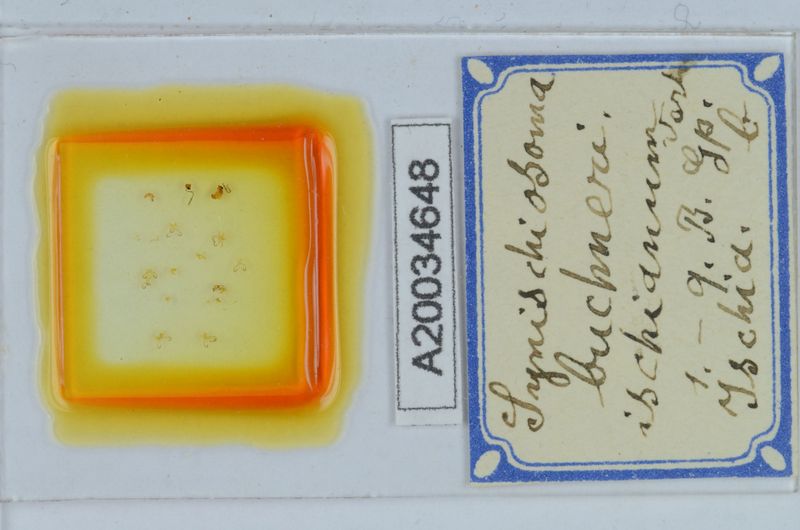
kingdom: Animalia
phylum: Arthropoda
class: Diplopoda
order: Chordeumatida
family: Craspedosomatidae
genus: Synischiosoma
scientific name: Synischiosoma buchneri
